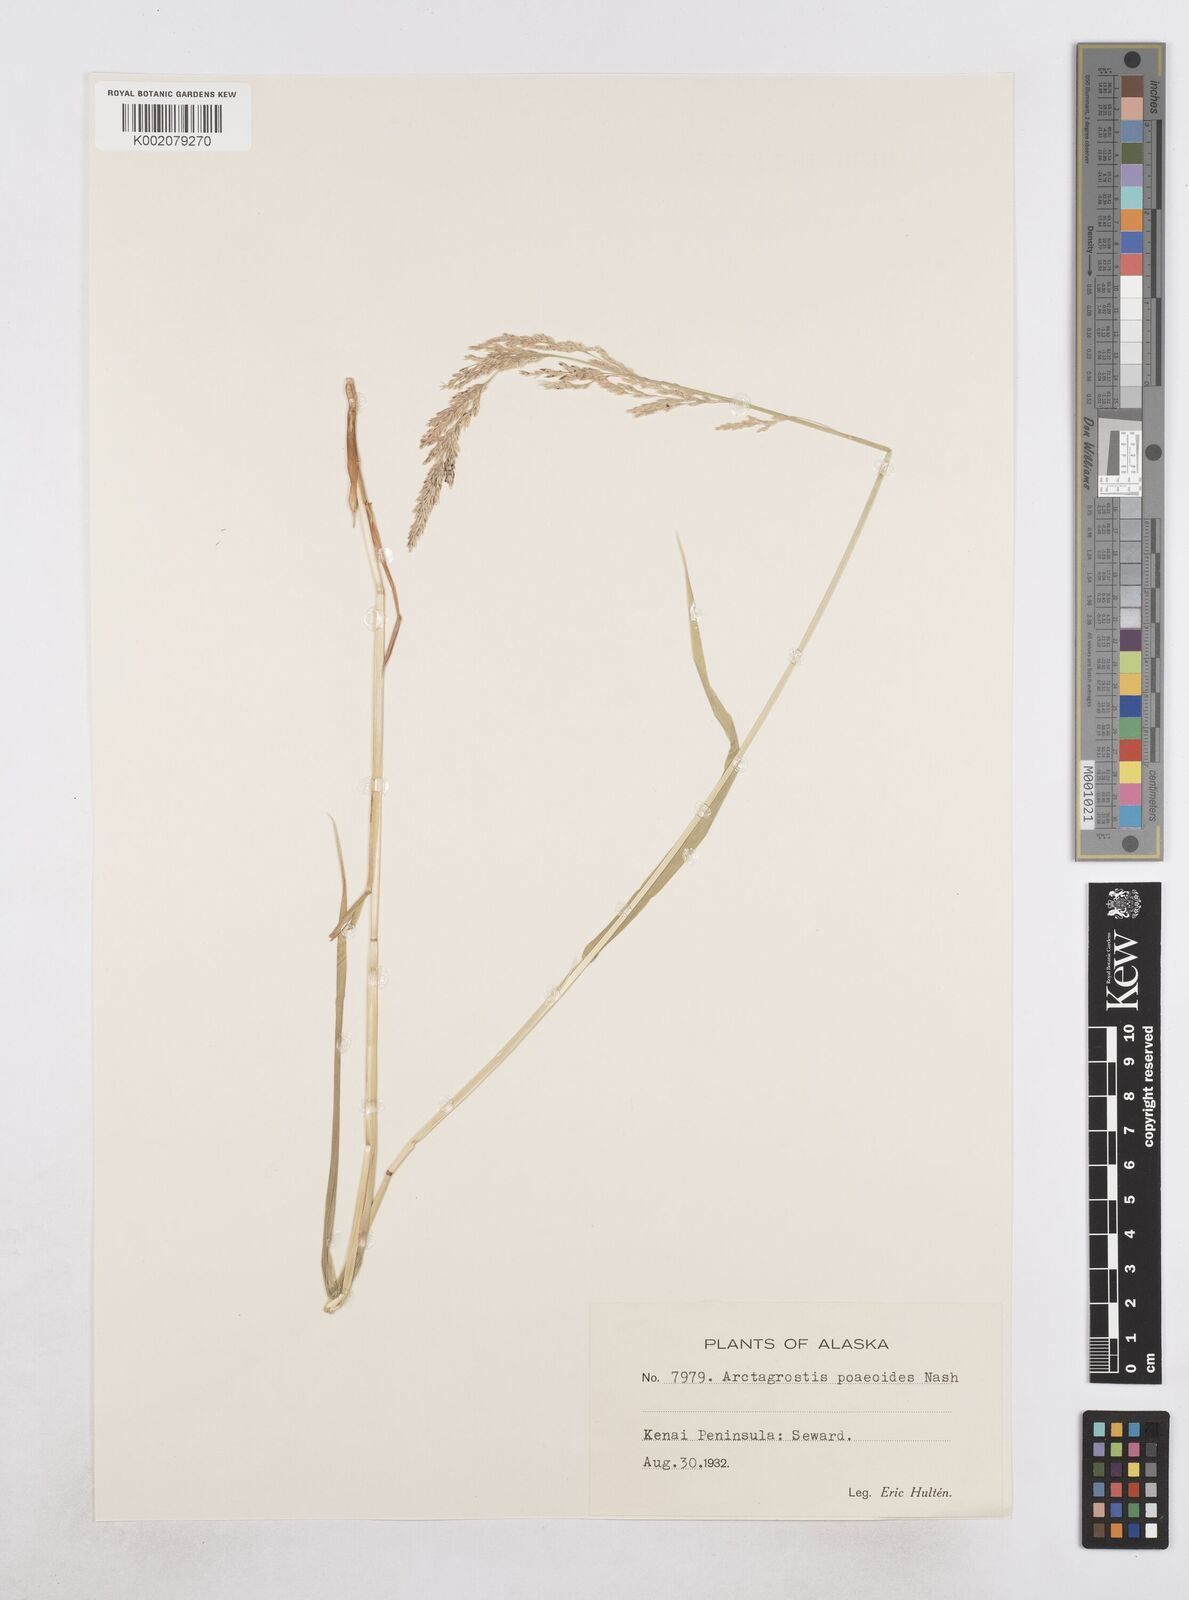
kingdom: Plantae
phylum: Tracheophyta
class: Liliopsida
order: Poales
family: Poaceae
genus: Arctagrostis
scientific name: Arctagrostis latifolia
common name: Arctic grass
